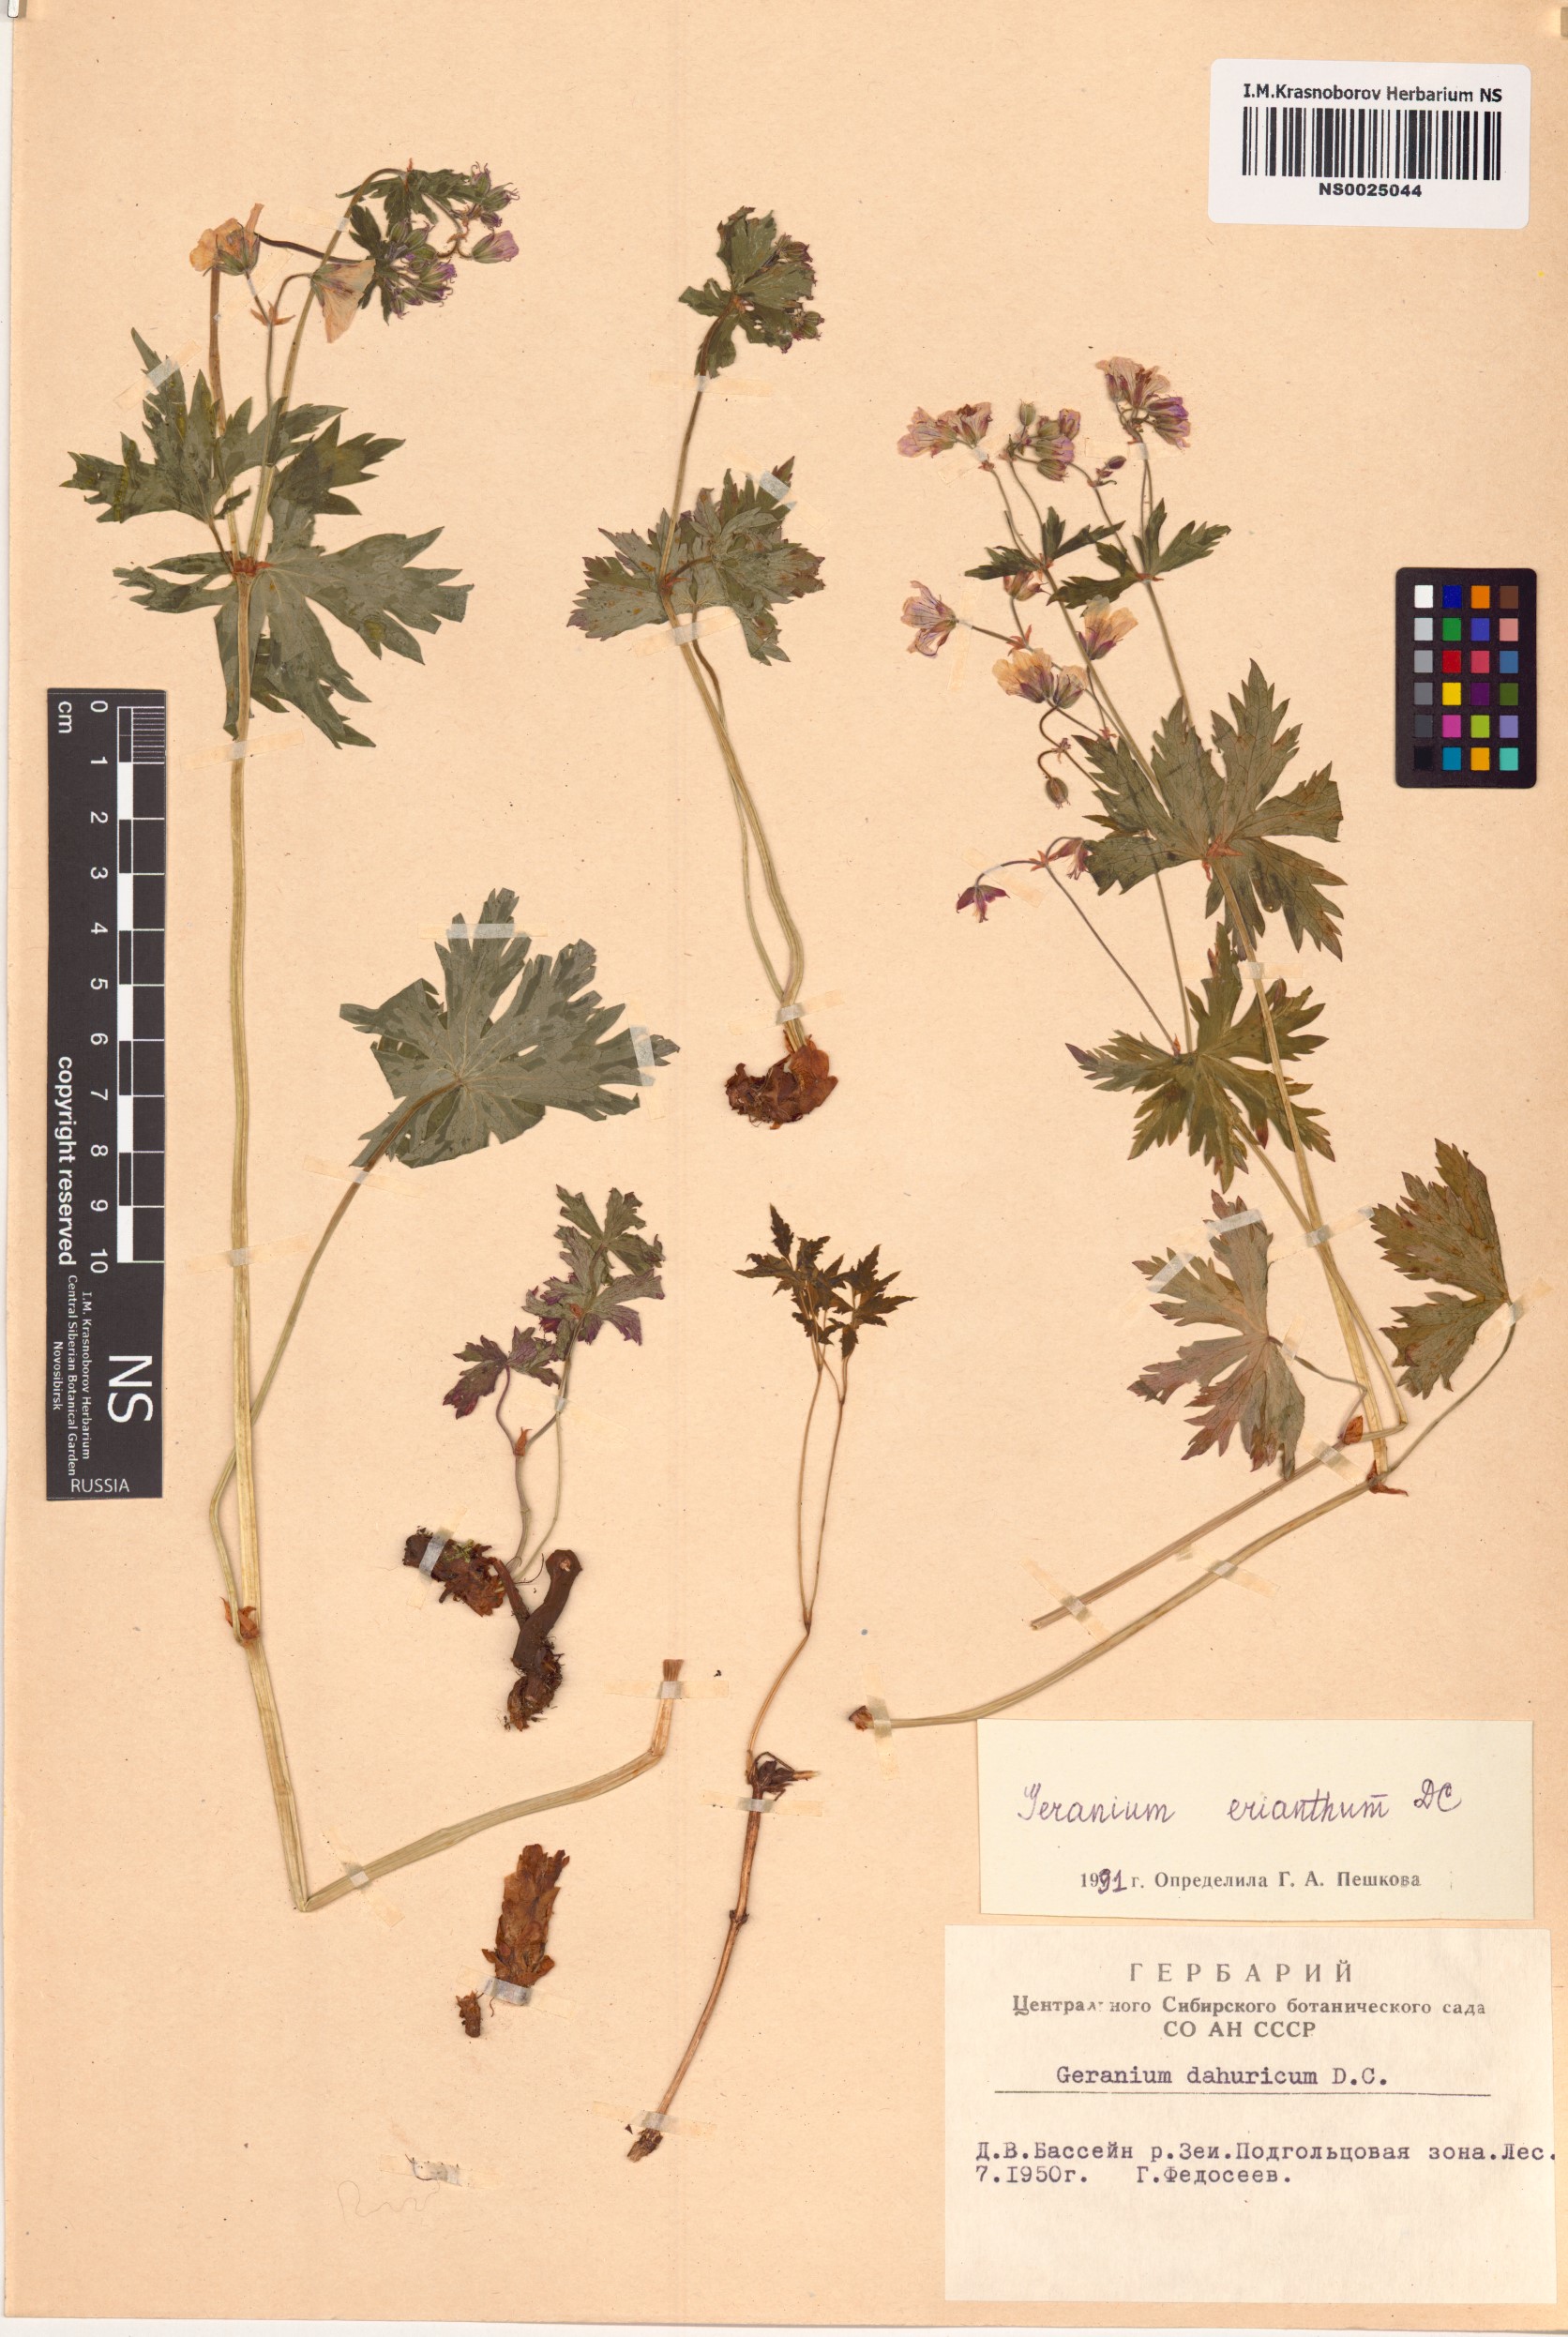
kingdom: Plantae
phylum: Tracheophyta
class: Magnoliopsida
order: Geraniales
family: Geraniaceae
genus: Geranium
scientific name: Geranium erianthum
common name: Northern crane's-bill
